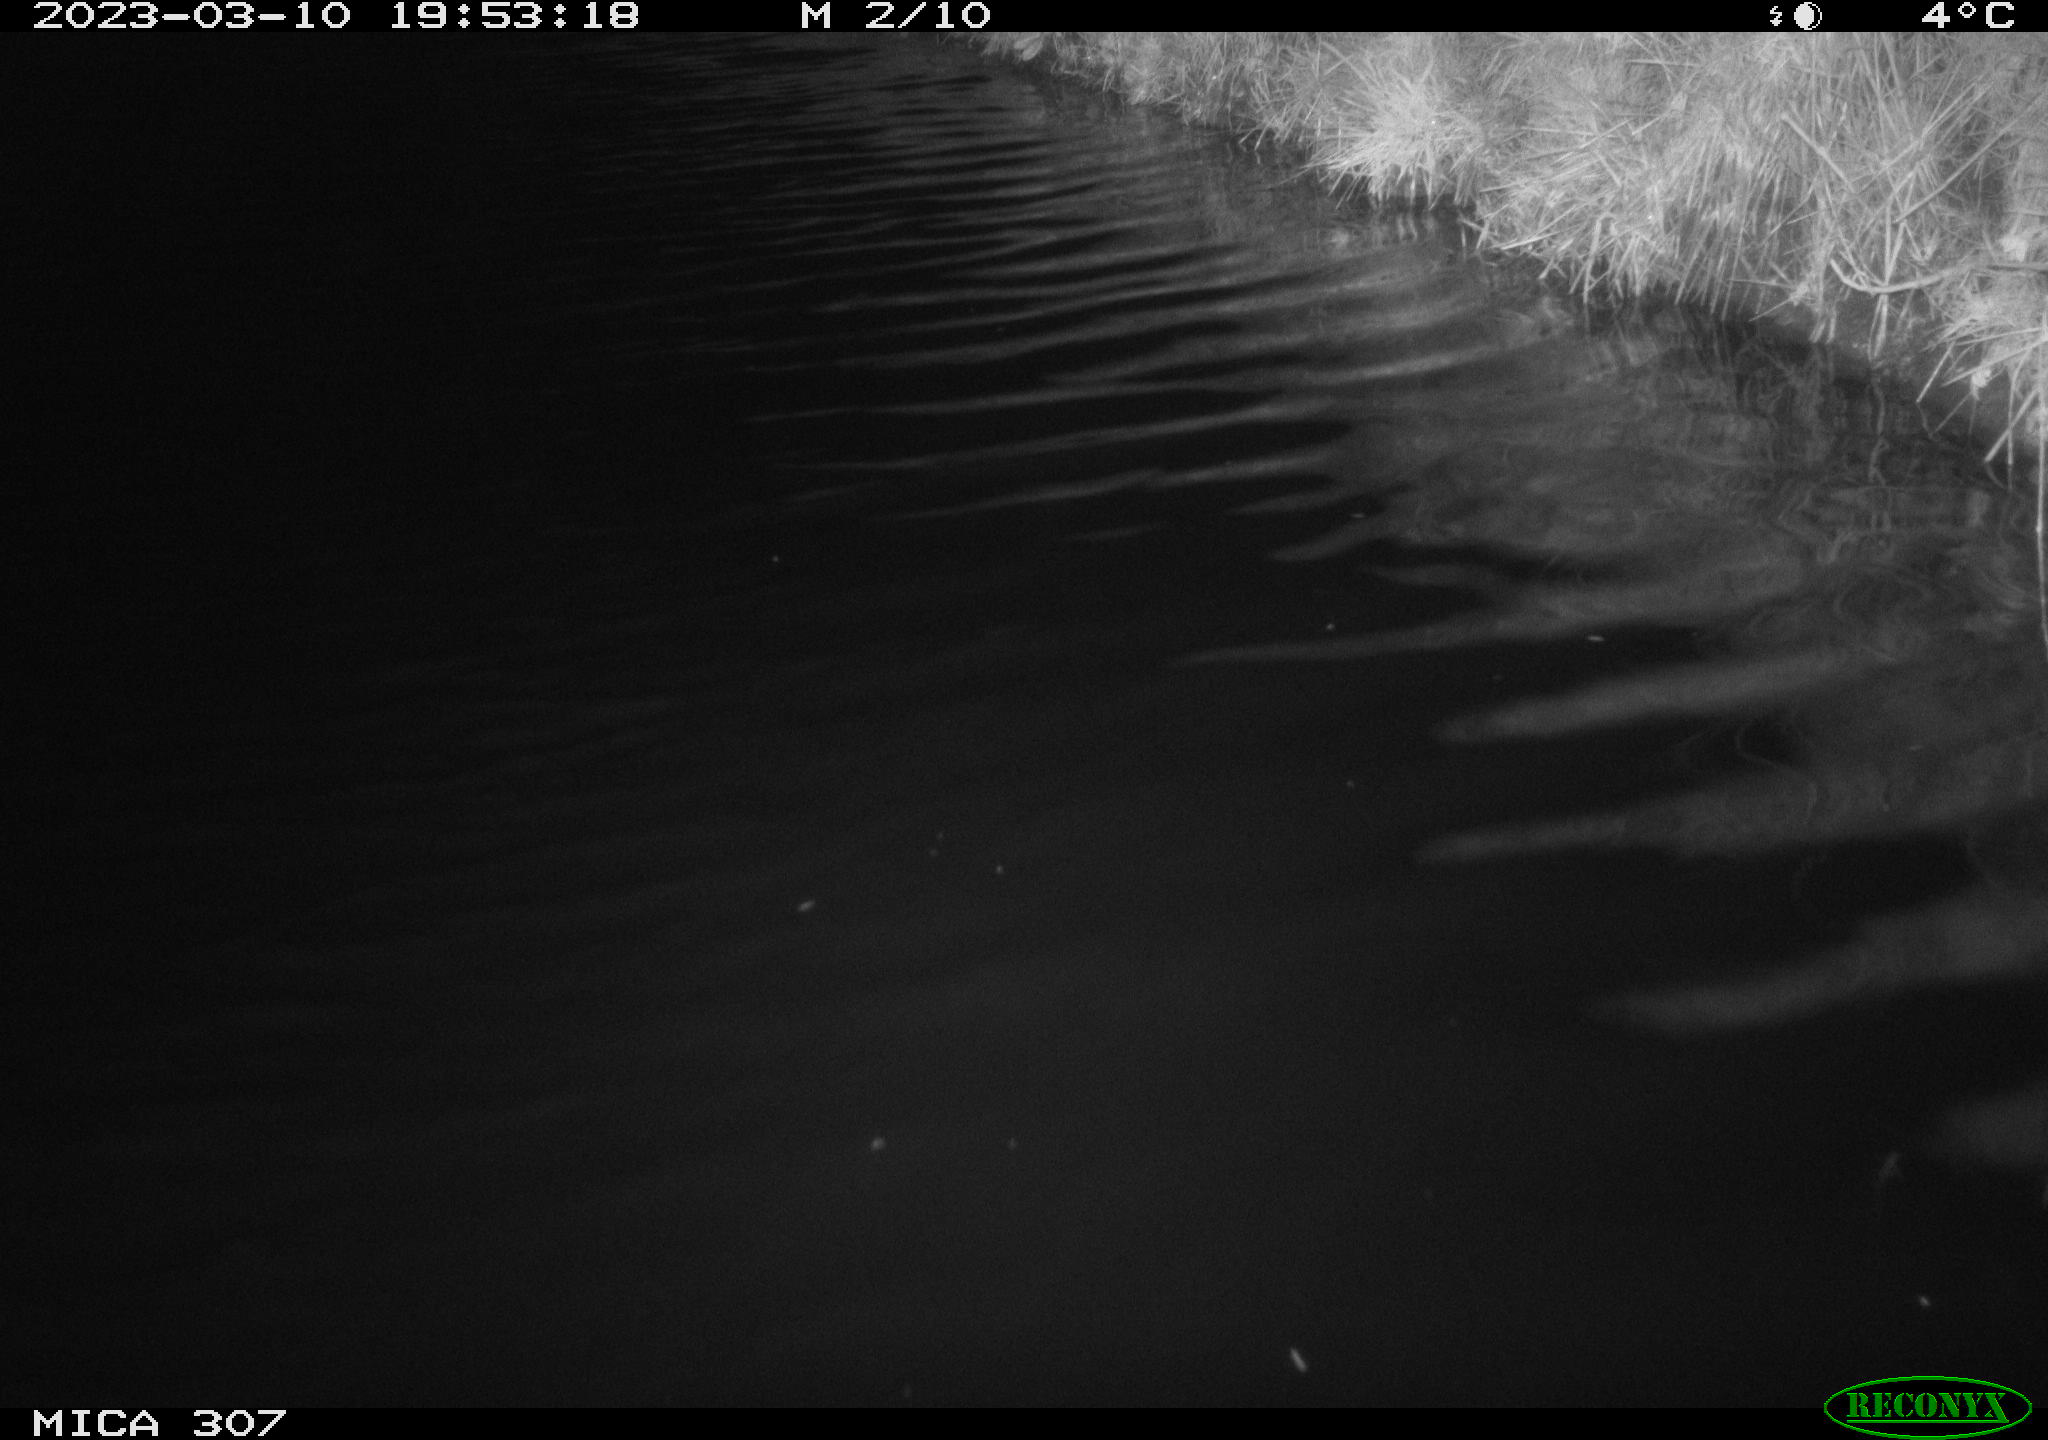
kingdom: Animalia
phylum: Chordata
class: Mammalia
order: Rodentia
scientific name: Rodentia
